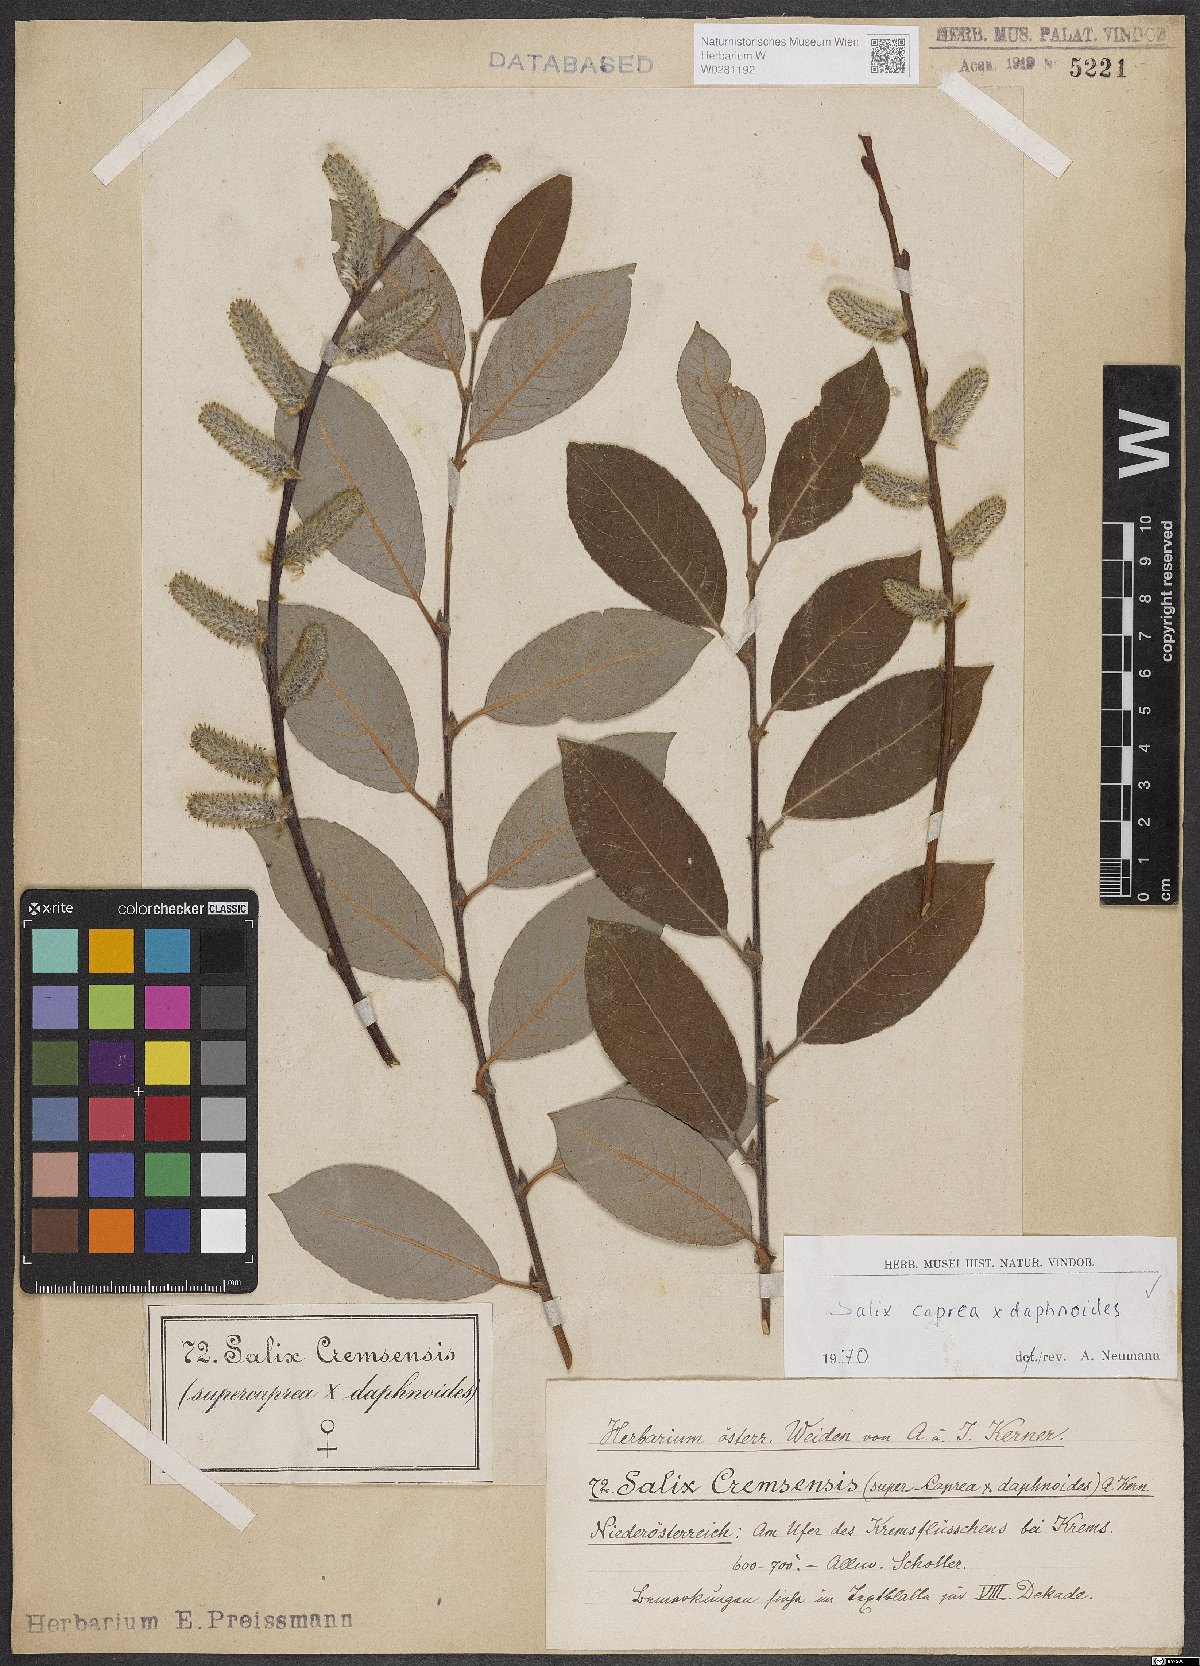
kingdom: Plantae
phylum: Tracheophyta
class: Magnoliopsida
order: Malpighiales
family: Salicaceae
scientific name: Salicaceae
